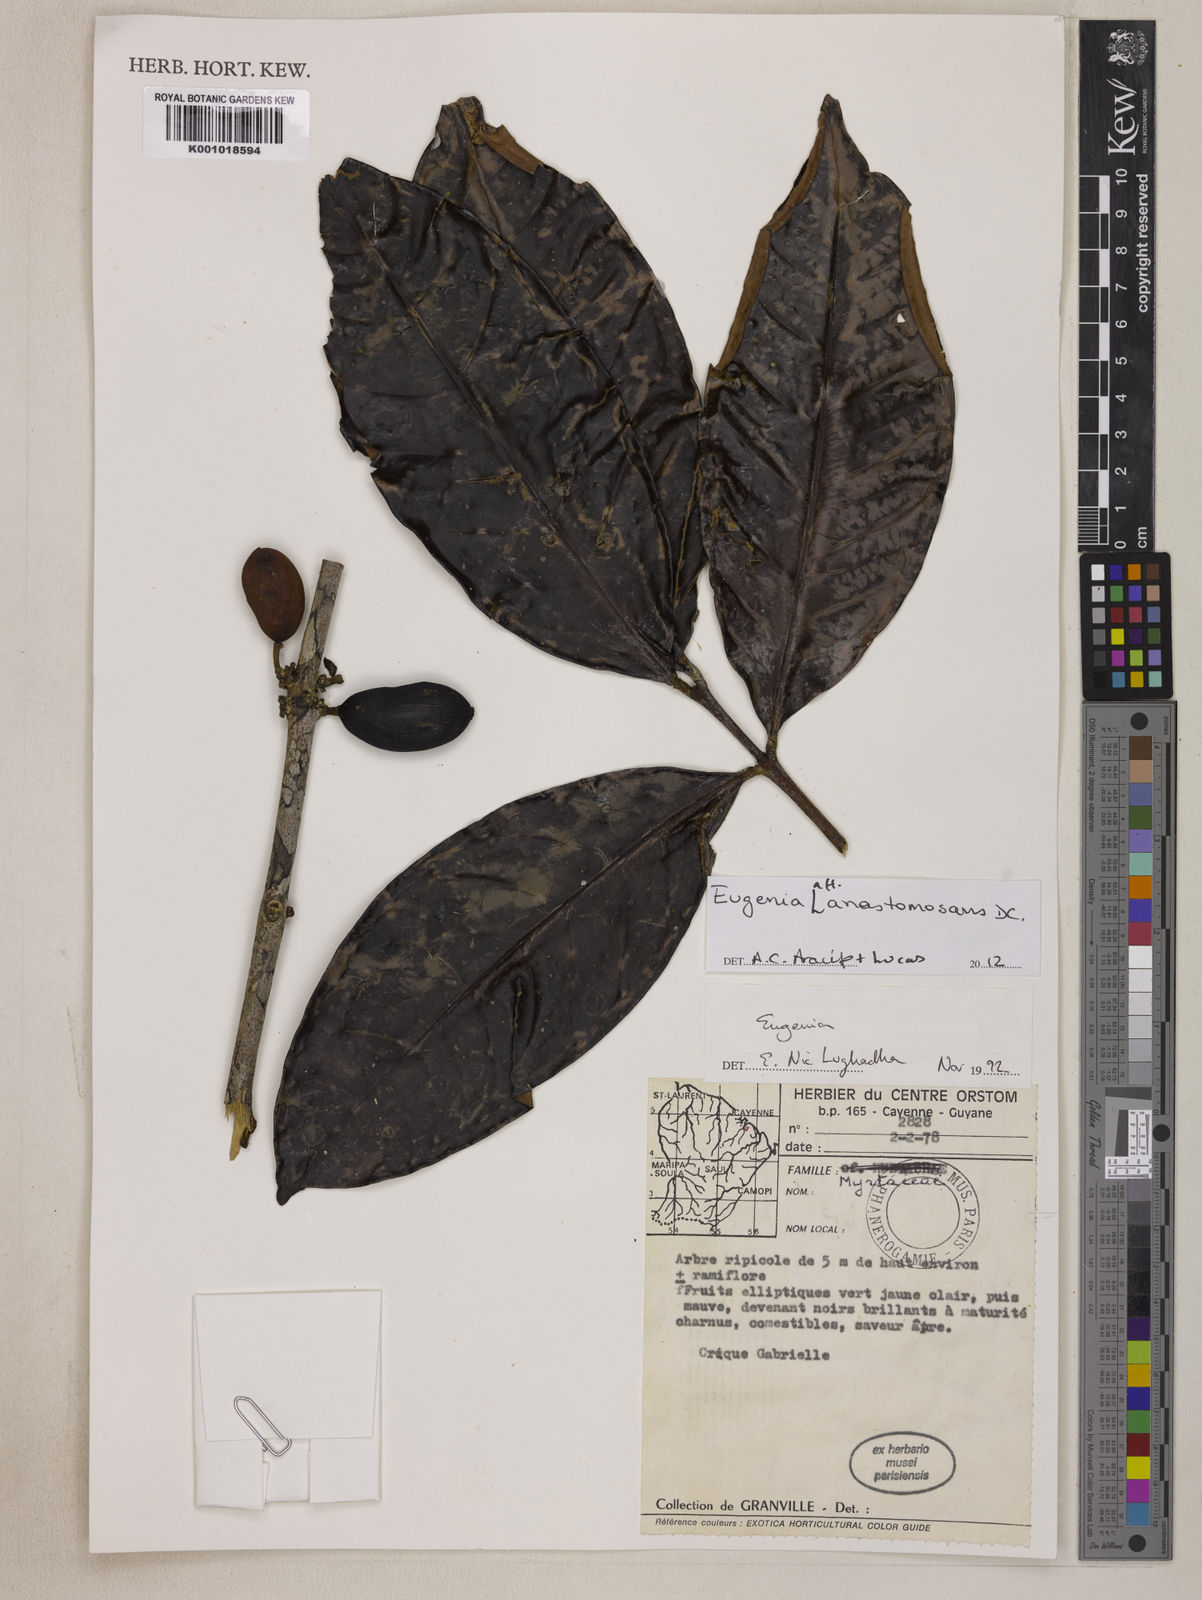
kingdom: Plantae
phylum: Tracheophyta
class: Magnoliopsida
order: Myrtales
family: Myrtaceae
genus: Eugenia
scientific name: Eugenia anastomosans
